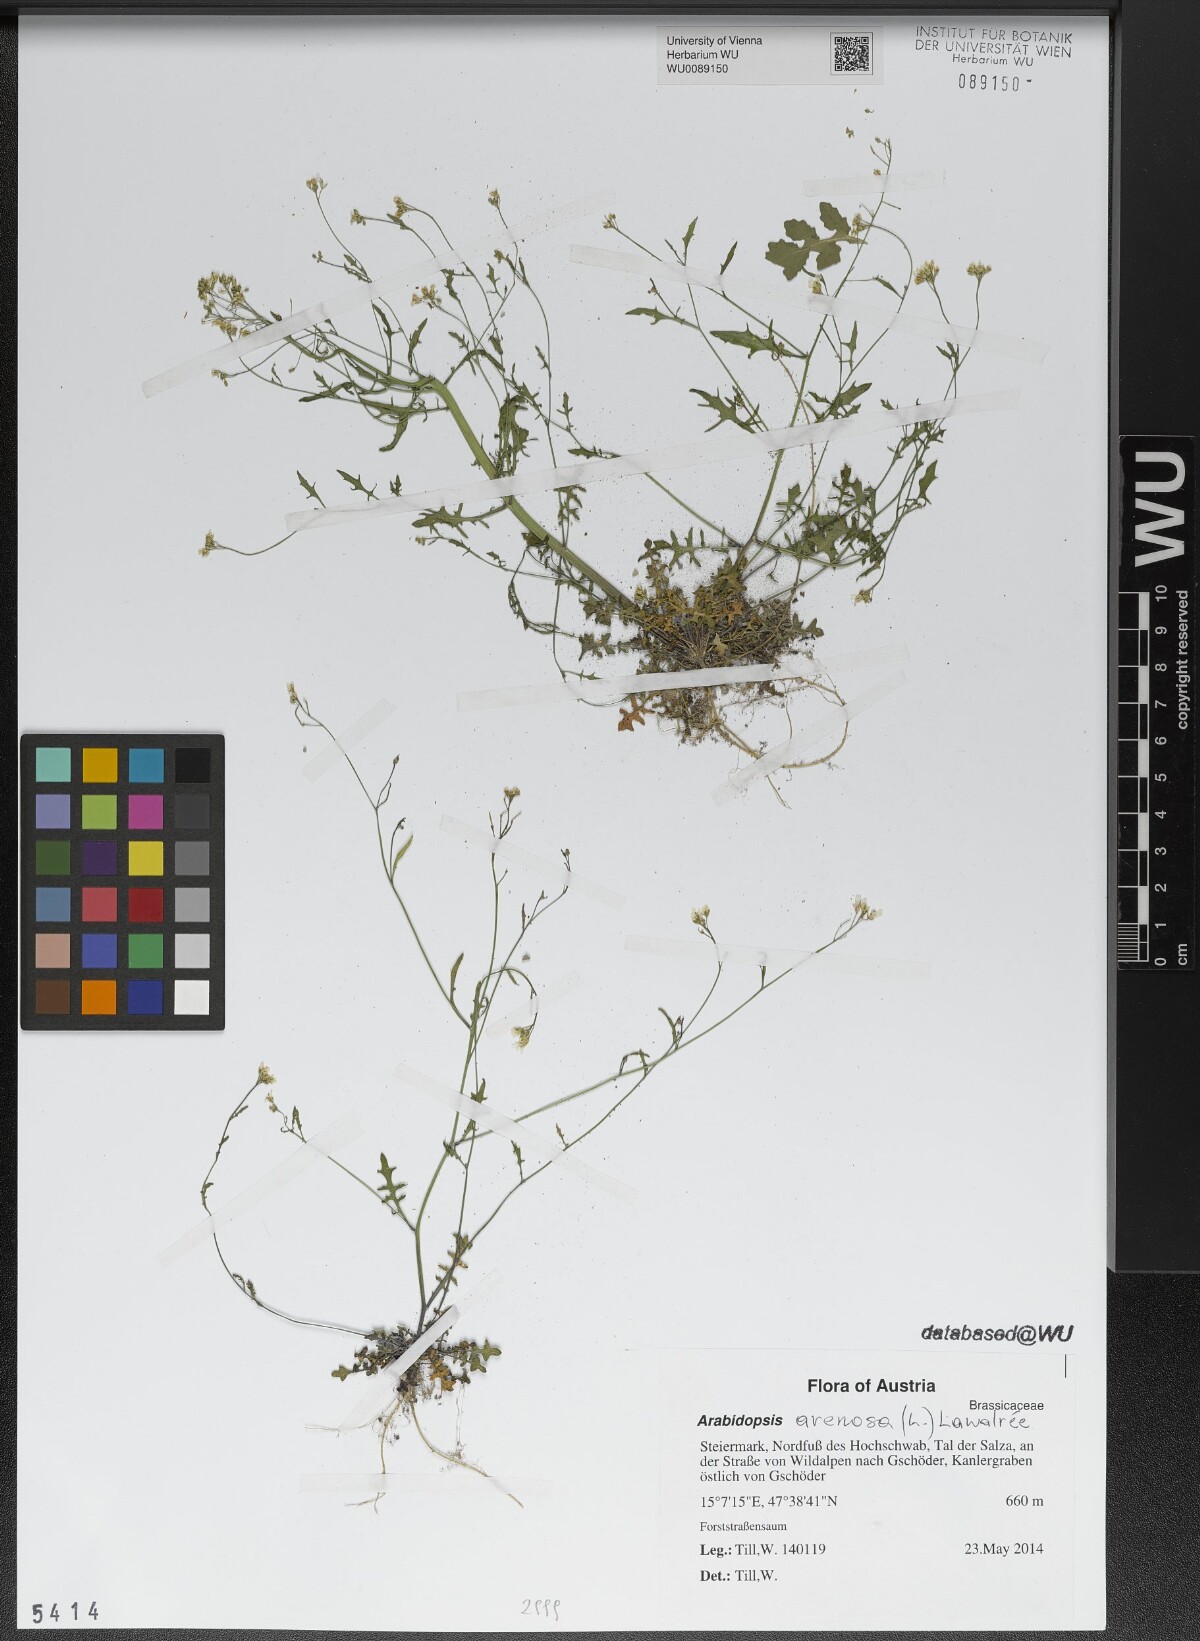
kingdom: Plantae
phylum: Tracheophyta
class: Magnoliopsida
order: Brassicales
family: Brassicaceae
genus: Arabidopsis
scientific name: Arabidopsis arenosa
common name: Sand rock-cress
